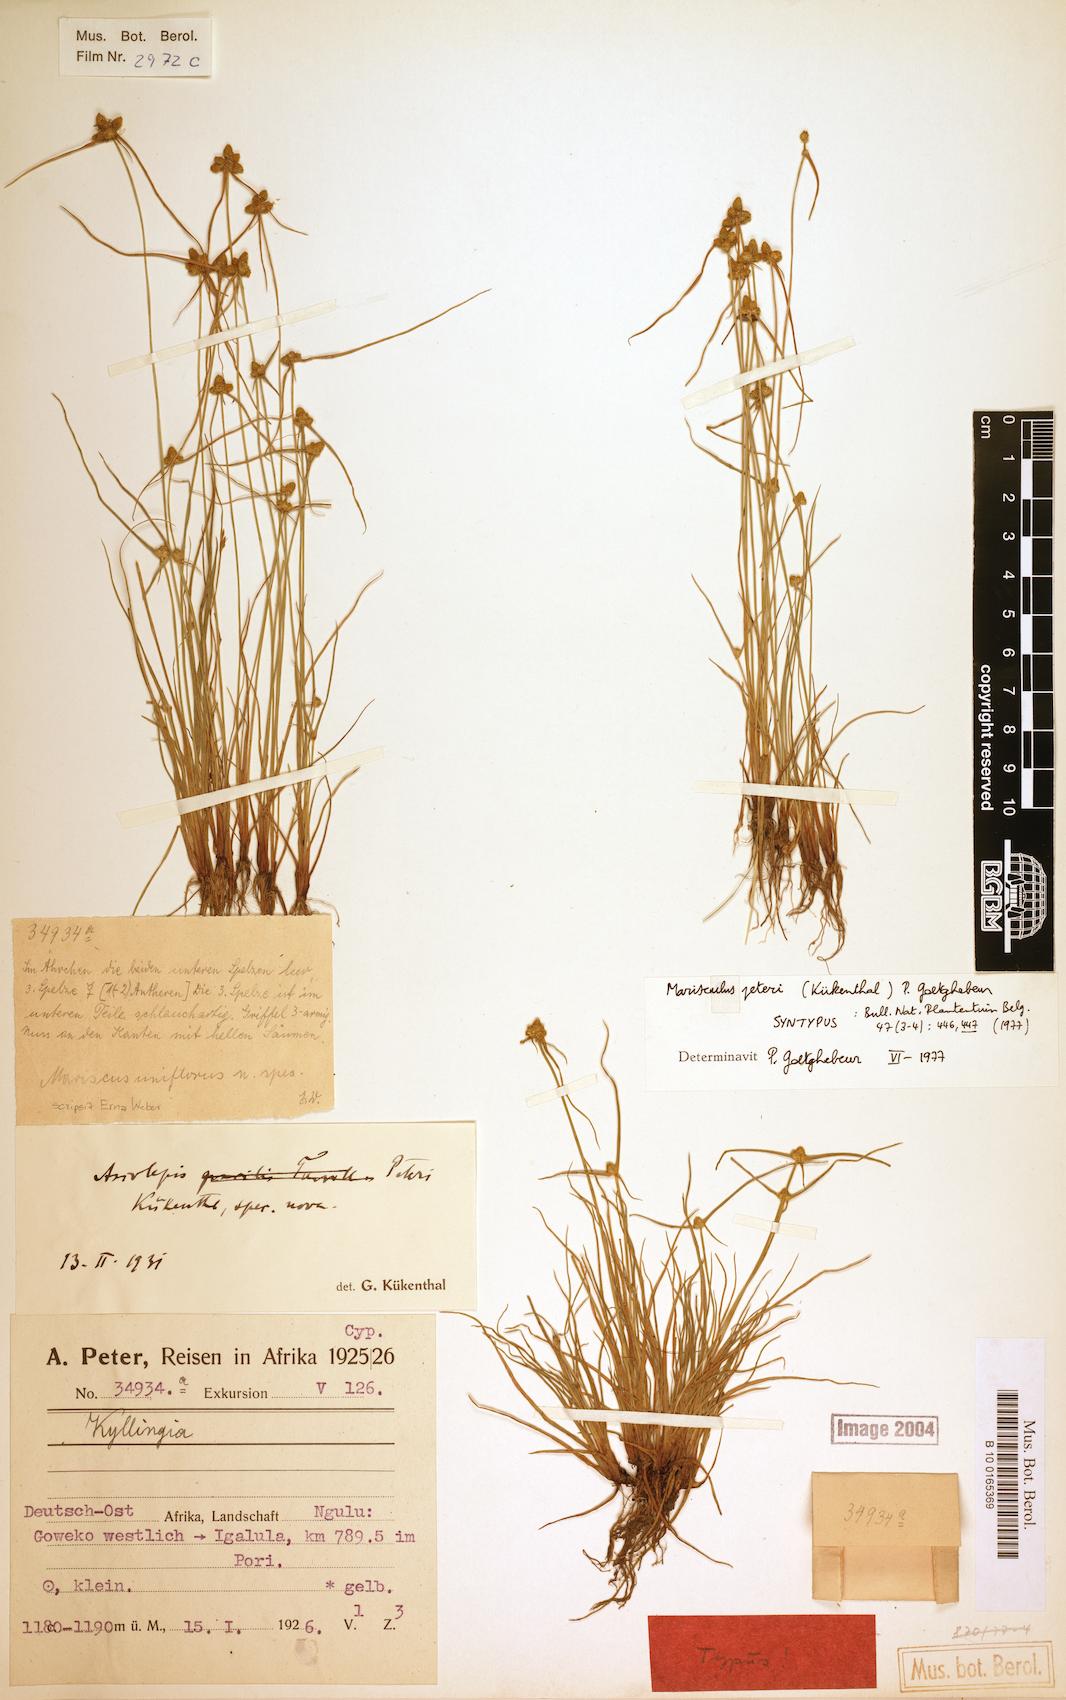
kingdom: Plantae
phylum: Tracheophyta
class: Liliopsida
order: Poales
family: Cyperaceae
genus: Cyperus
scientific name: Cyperus microaureus
